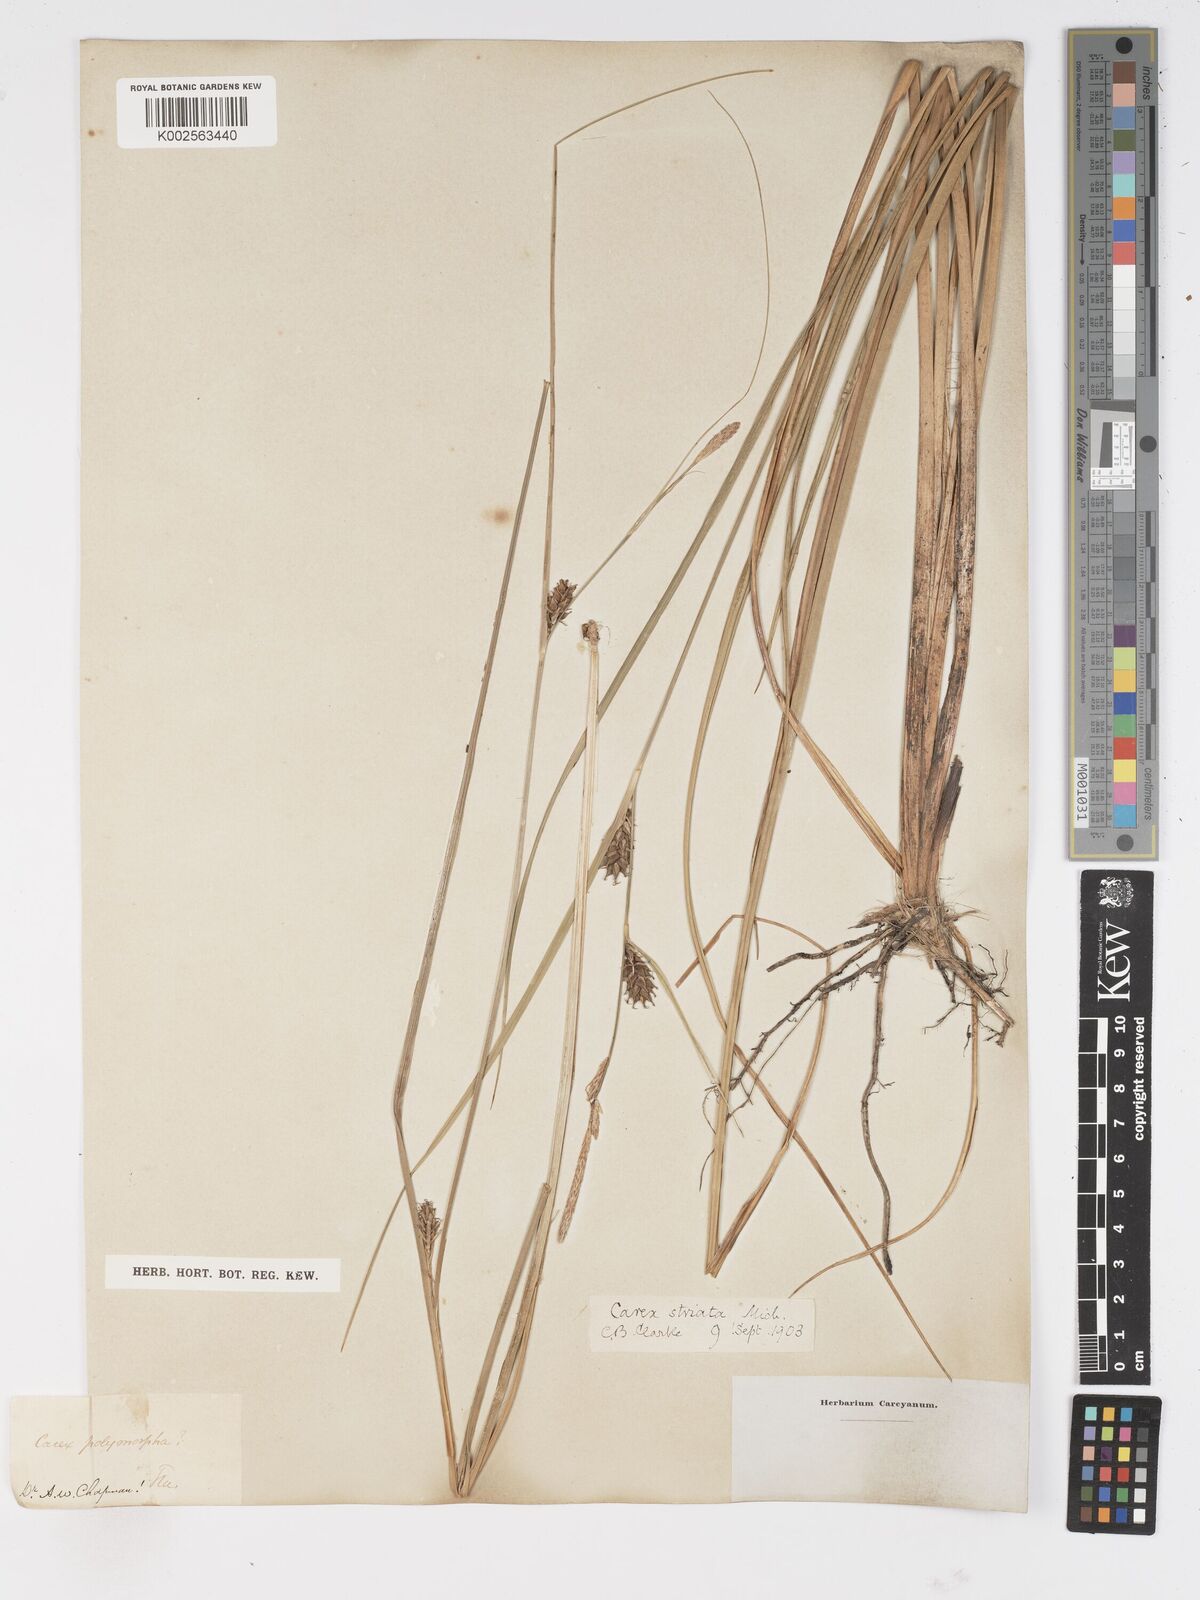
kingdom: Plantae
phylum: Tracheophyta
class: Liliopsida
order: Poales
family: Cyperaceae
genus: Carex
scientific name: Carex trichocarpa
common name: Hairy-fruited lake sedge
